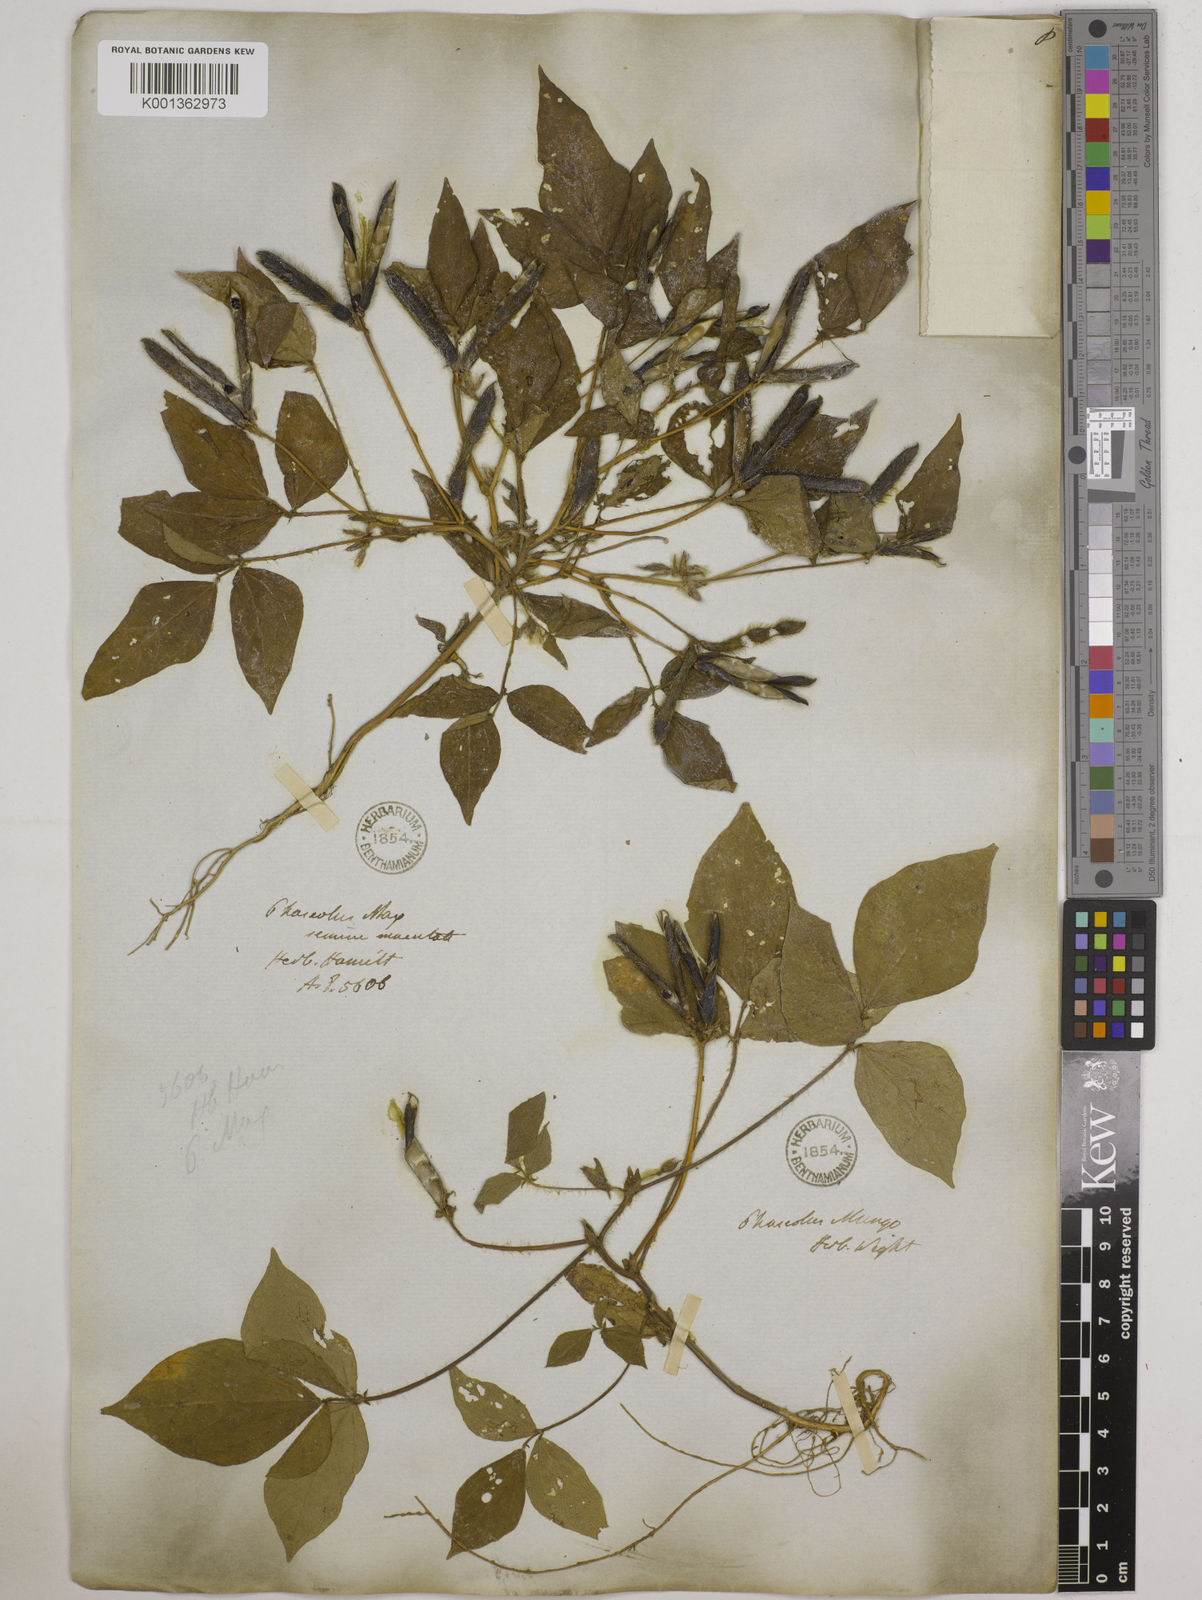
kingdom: Plantae
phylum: Tracheophyta
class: Magnoliopsida
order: Fabales
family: Fabaceae
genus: Vigna
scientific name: Vigna mungo
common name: Black gram
